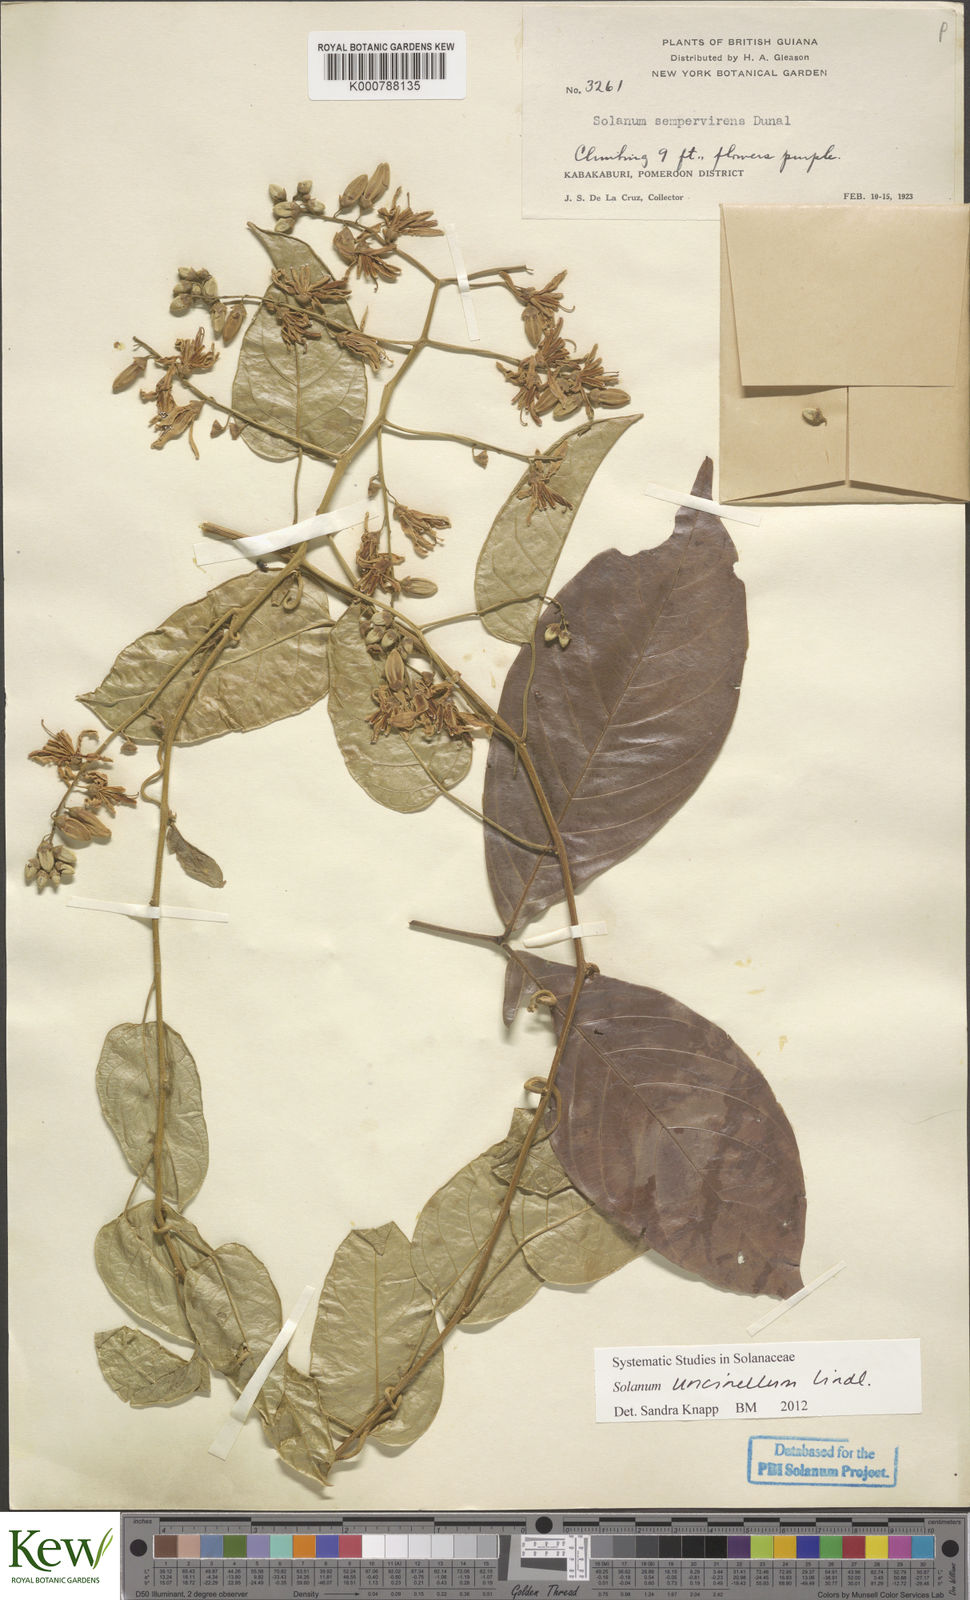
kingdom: Plantae
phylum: Tracheophyta
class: Magnoliopsida
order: Solanales
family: Solanaceae
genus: Solanum
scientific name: Solanum uncinellum
